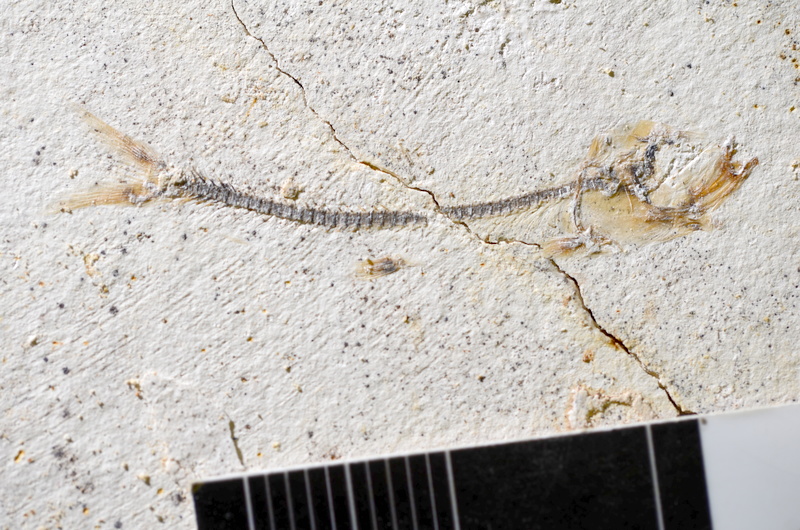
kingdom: Animalia
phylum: Chordata
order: Salmoniformes
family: Orthogonikleithridae
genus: Orthogonikleithrus
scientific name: Orthogonikleithrus hoelli
